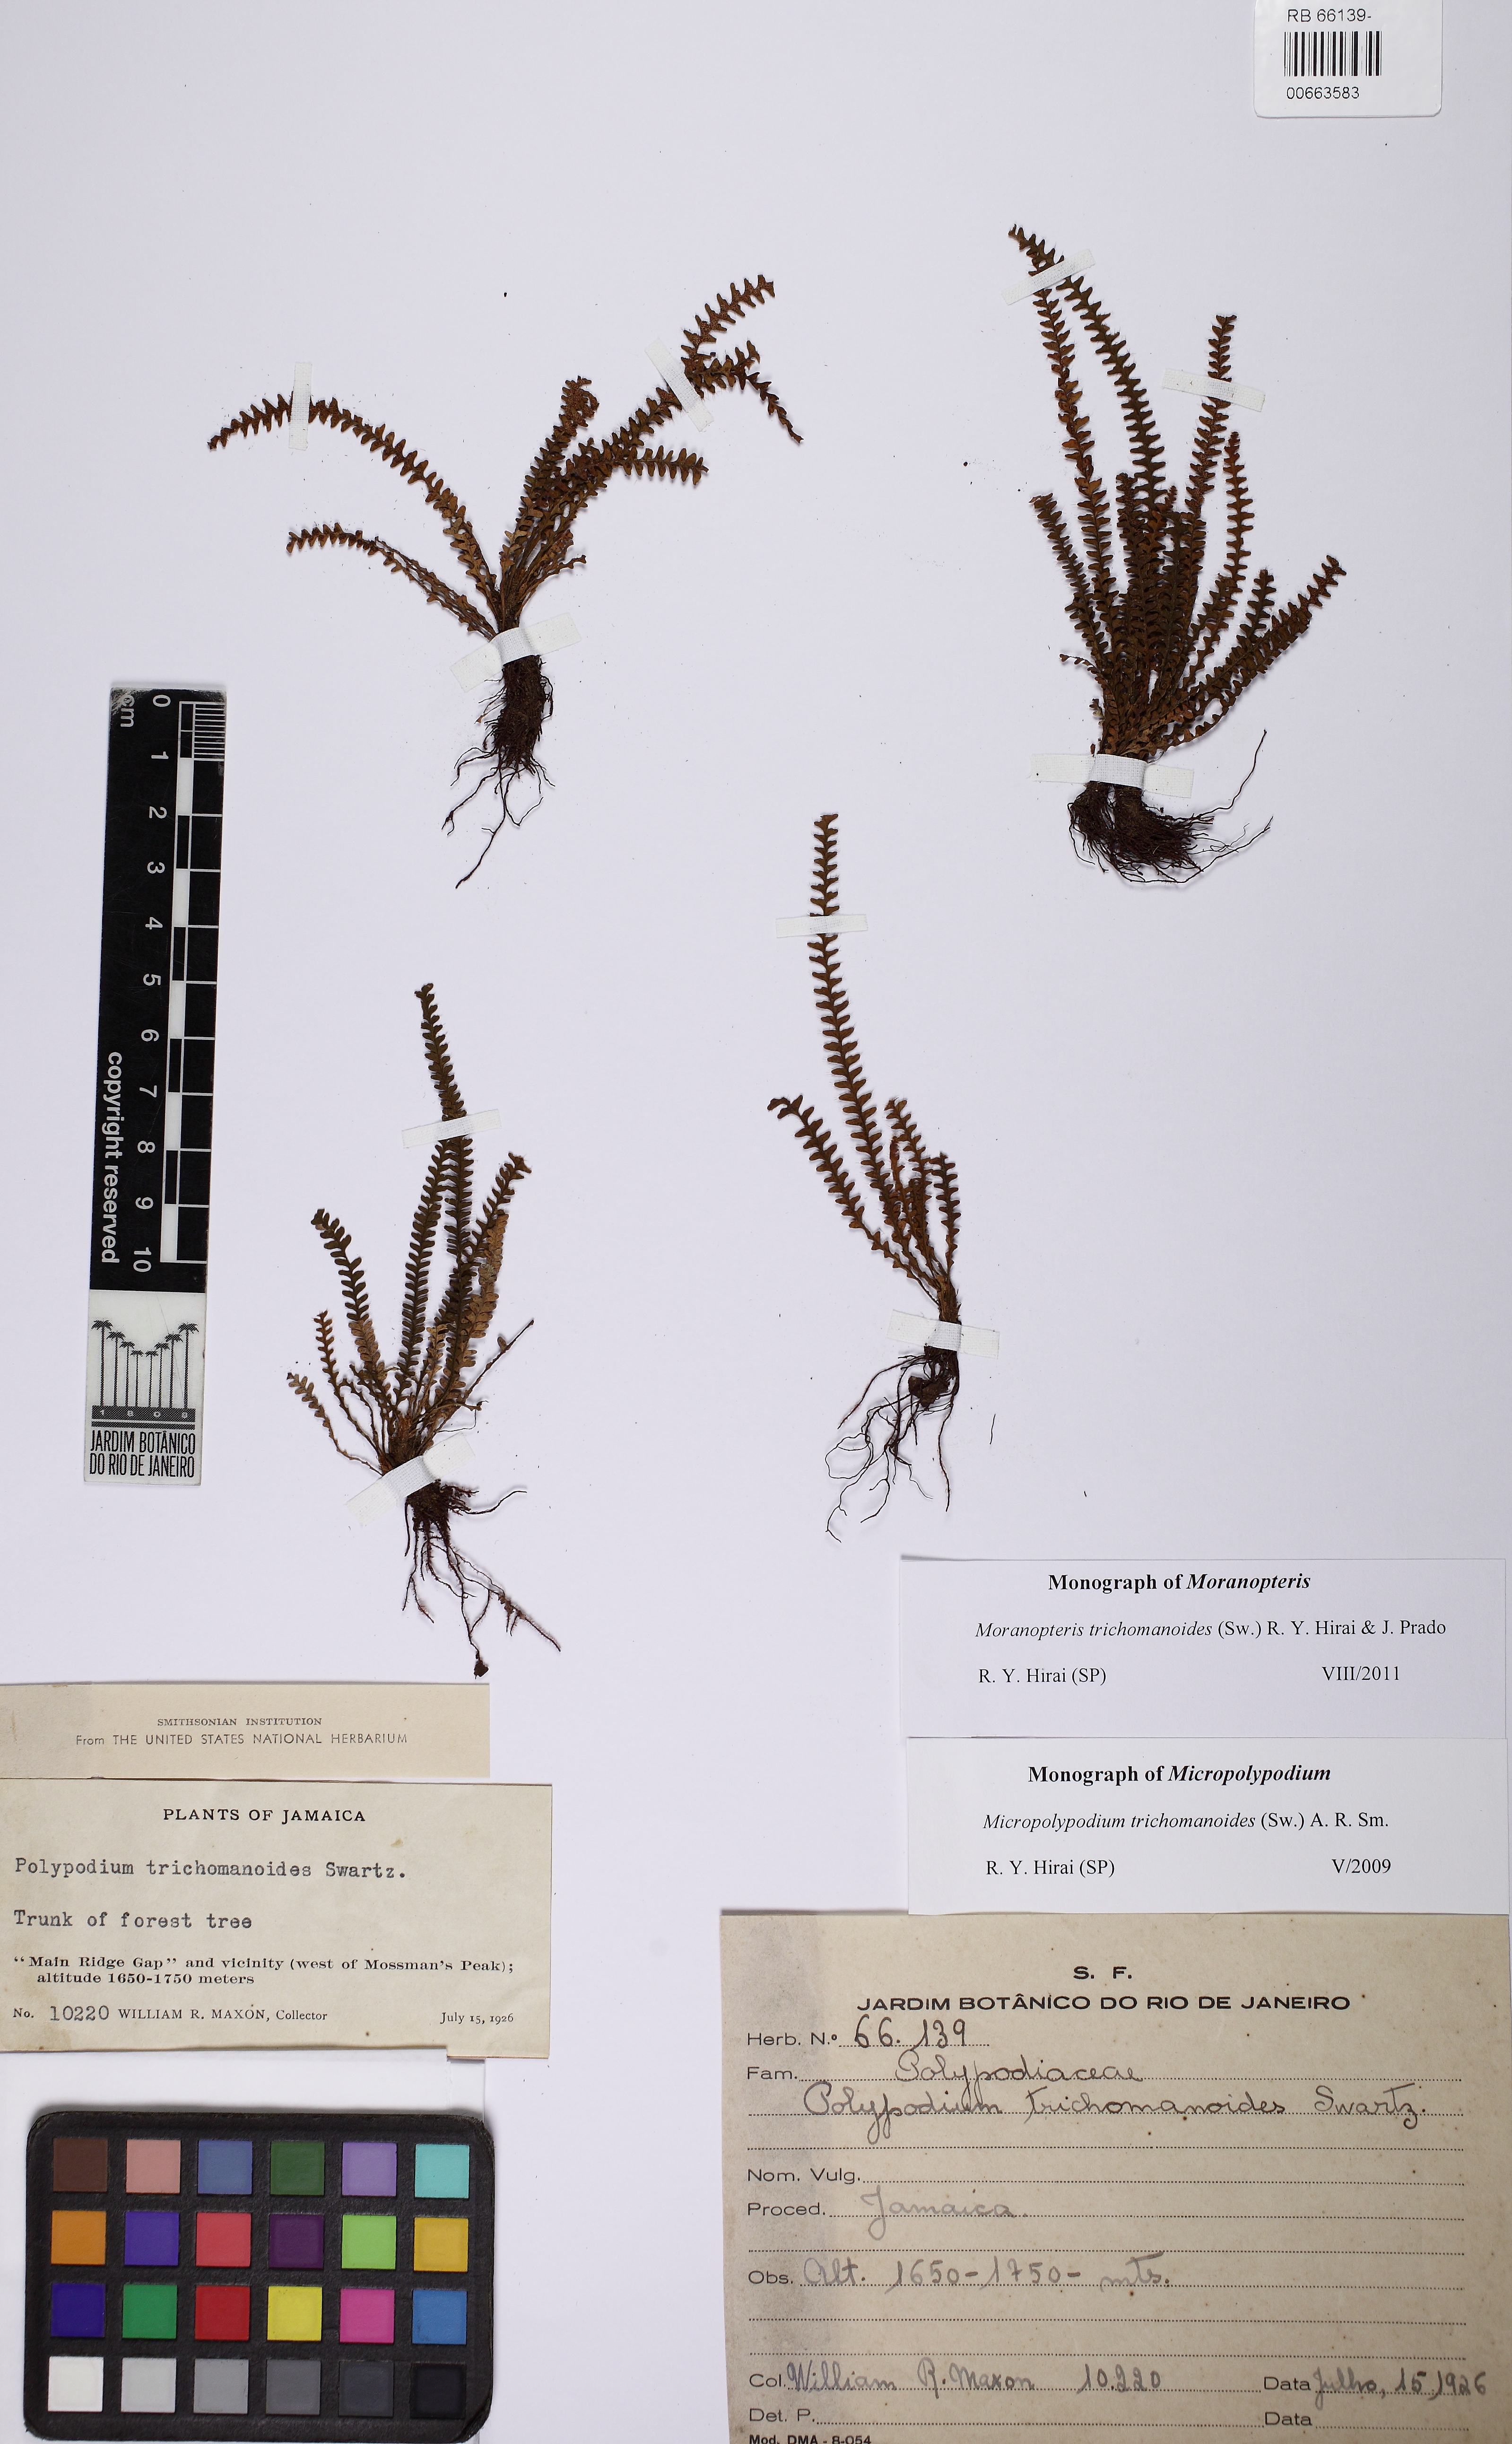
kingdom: Plantae
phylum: Tracheophyta
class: Polypodiopsida
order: Polypodiales
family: Polypodiaceae
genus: Moranopteris
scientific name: Moranopteris trichomanoides
